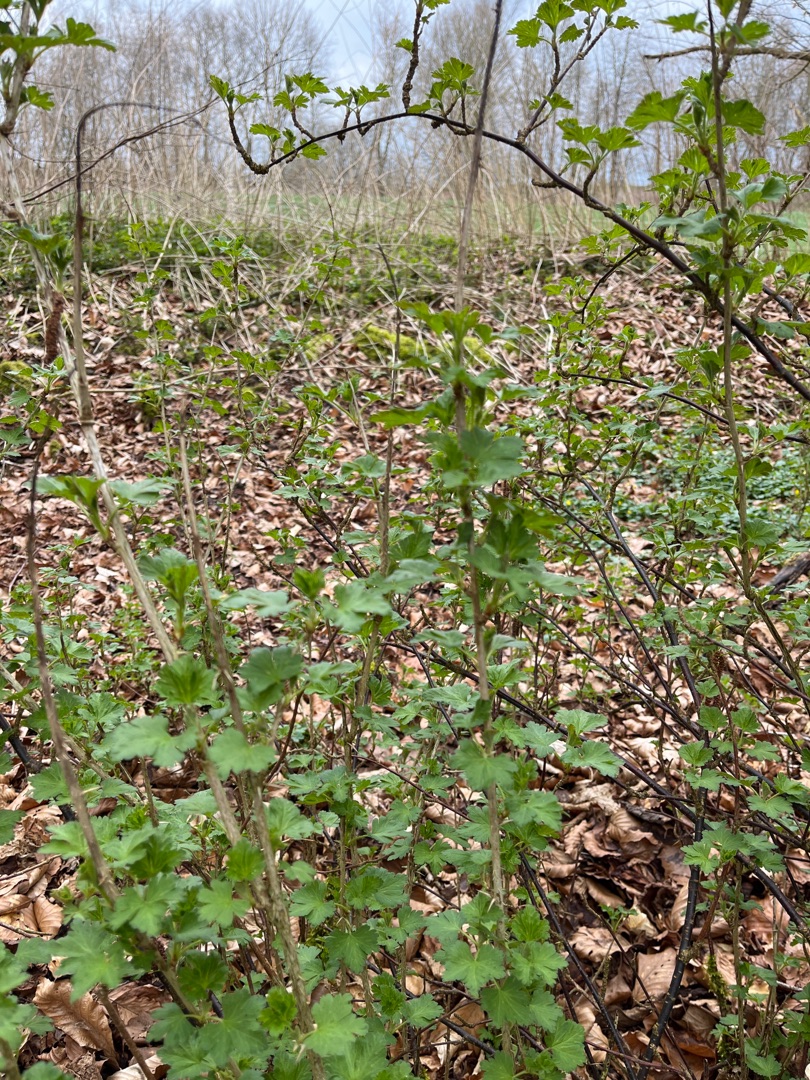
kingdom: Plantae
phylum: Tracheophyta
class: Magnoliopsida
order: Saxifragales
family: Grossulariaceae
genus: Ribes
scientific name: Ribes uva-crispa
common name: Stikkelsbær
